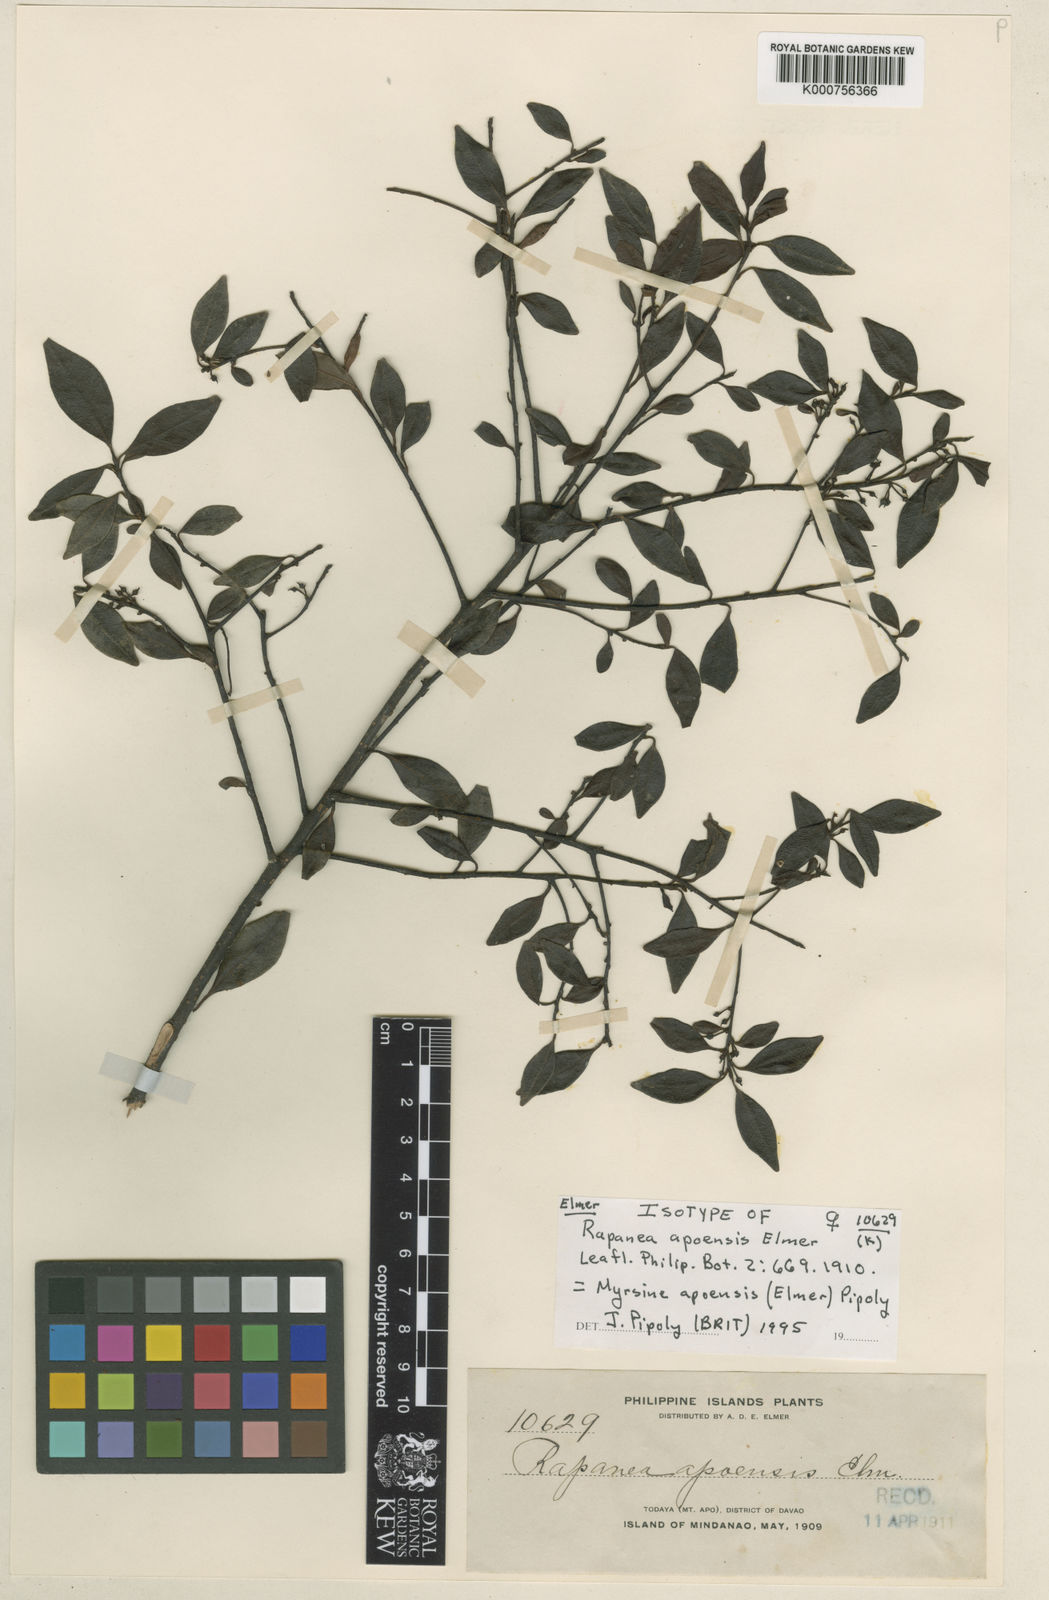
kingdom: Plantae
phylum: Tracheophyta
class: Magnoliopsida
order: Ericales
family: Primulaceae
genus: Myrsine
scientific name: Myrsine apoensis
